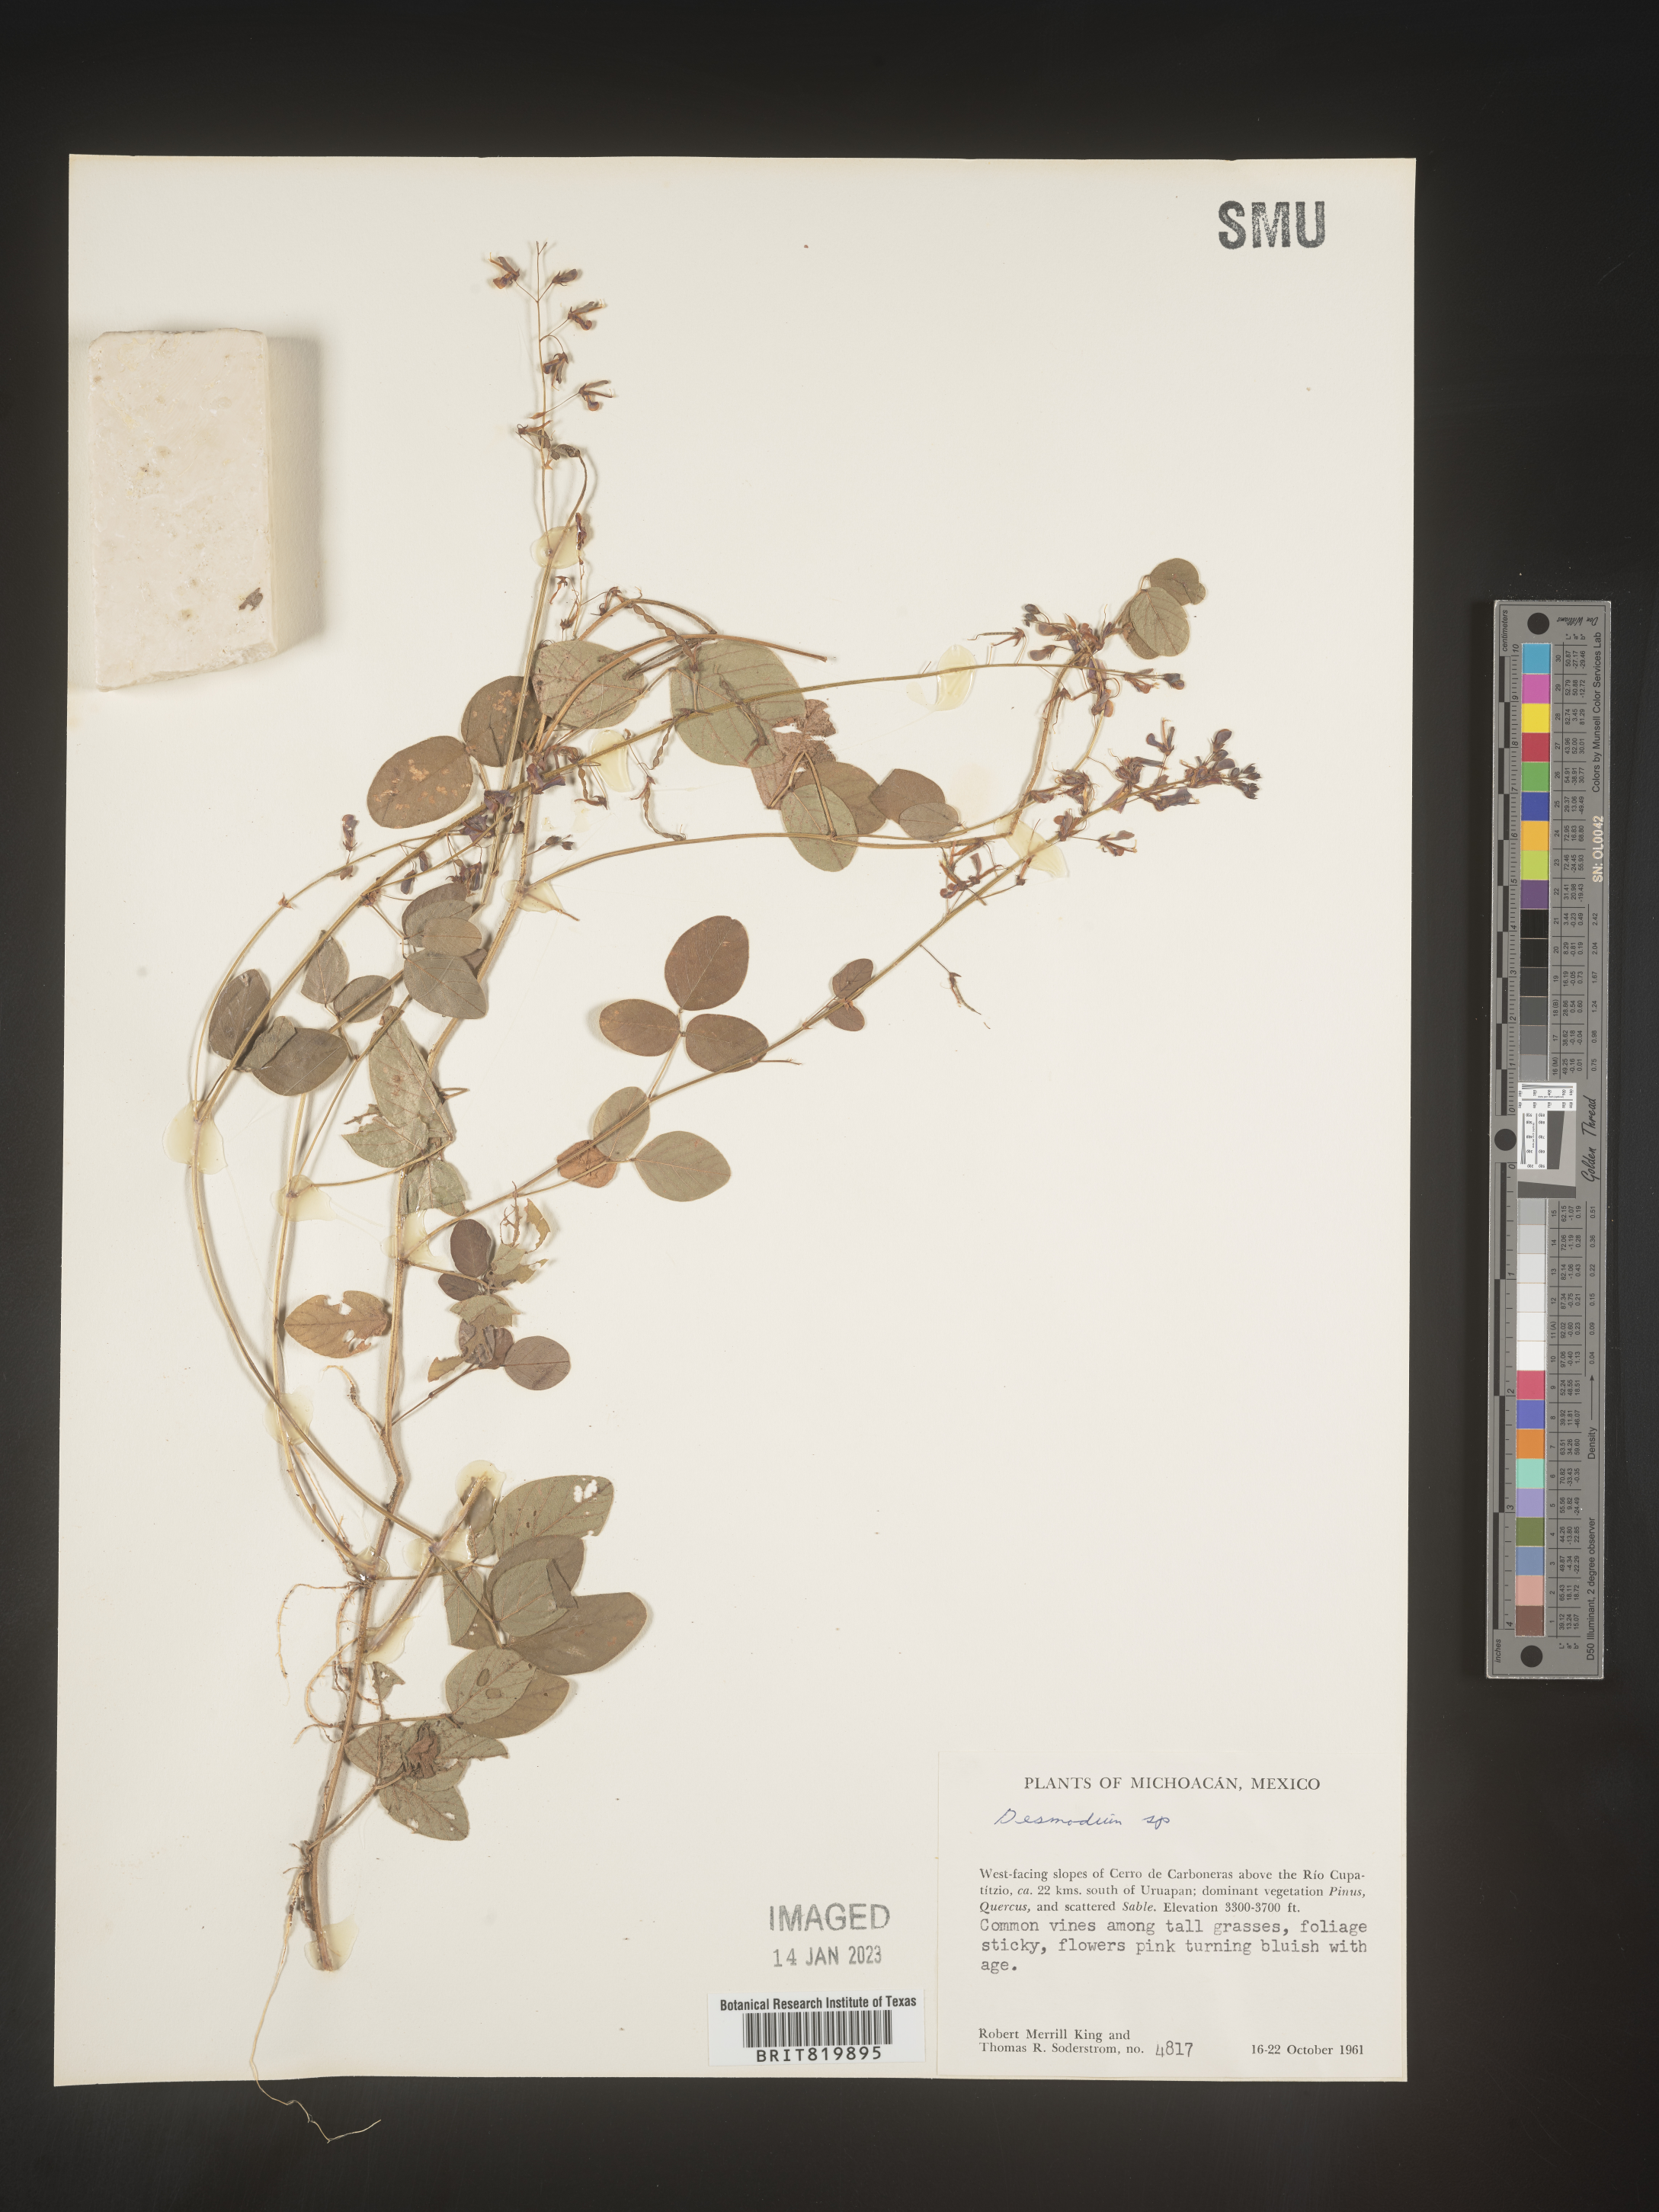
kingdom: Plantae
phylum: Tracheophyta
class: Magnoliopsida
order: Fabales
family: Fabaceae
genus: Desmodium
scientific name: Desmodium
